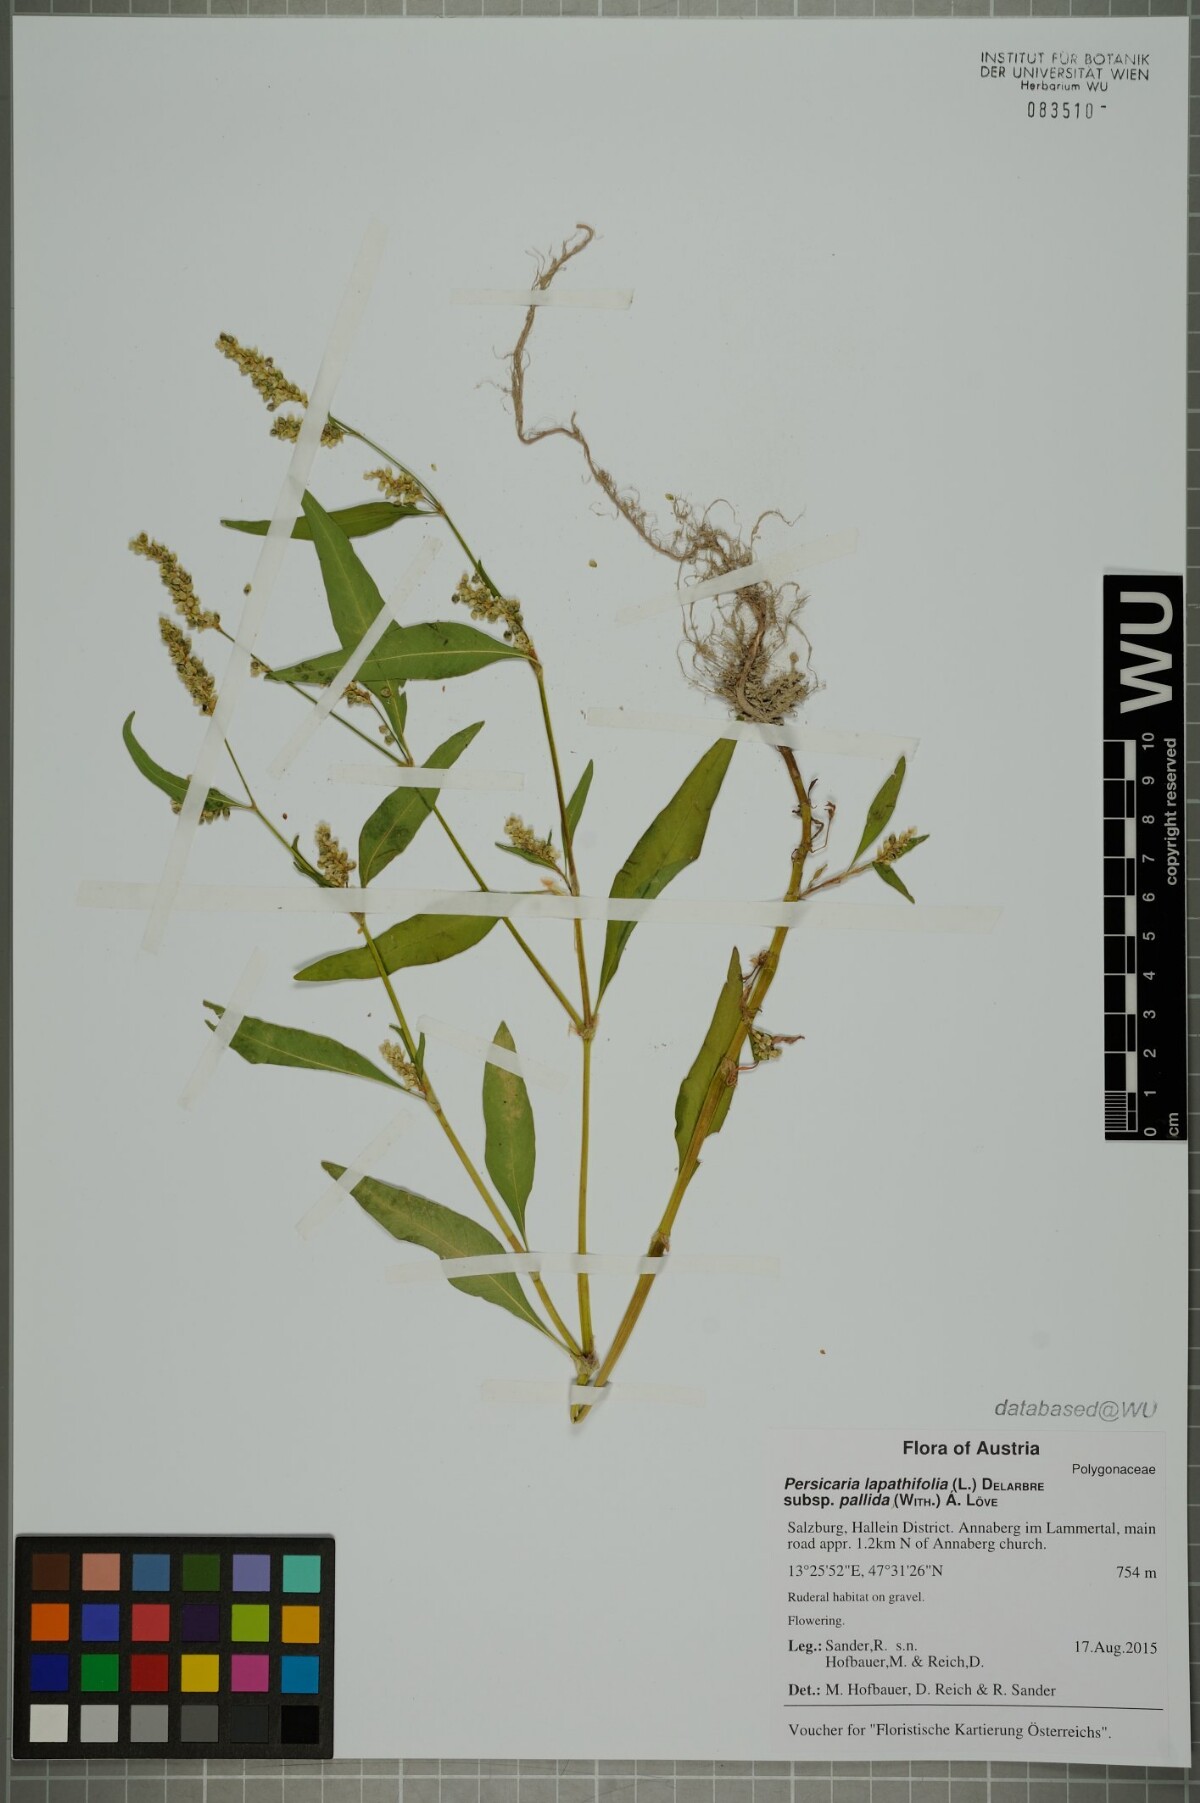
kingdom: Plantae
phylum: Tracheophyta
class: Magnoliopsida
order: Caryophyllales
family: Polygonaceae
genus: Persicaria
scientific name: Persicaria lapathifolia
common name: Curlytop knotweed
